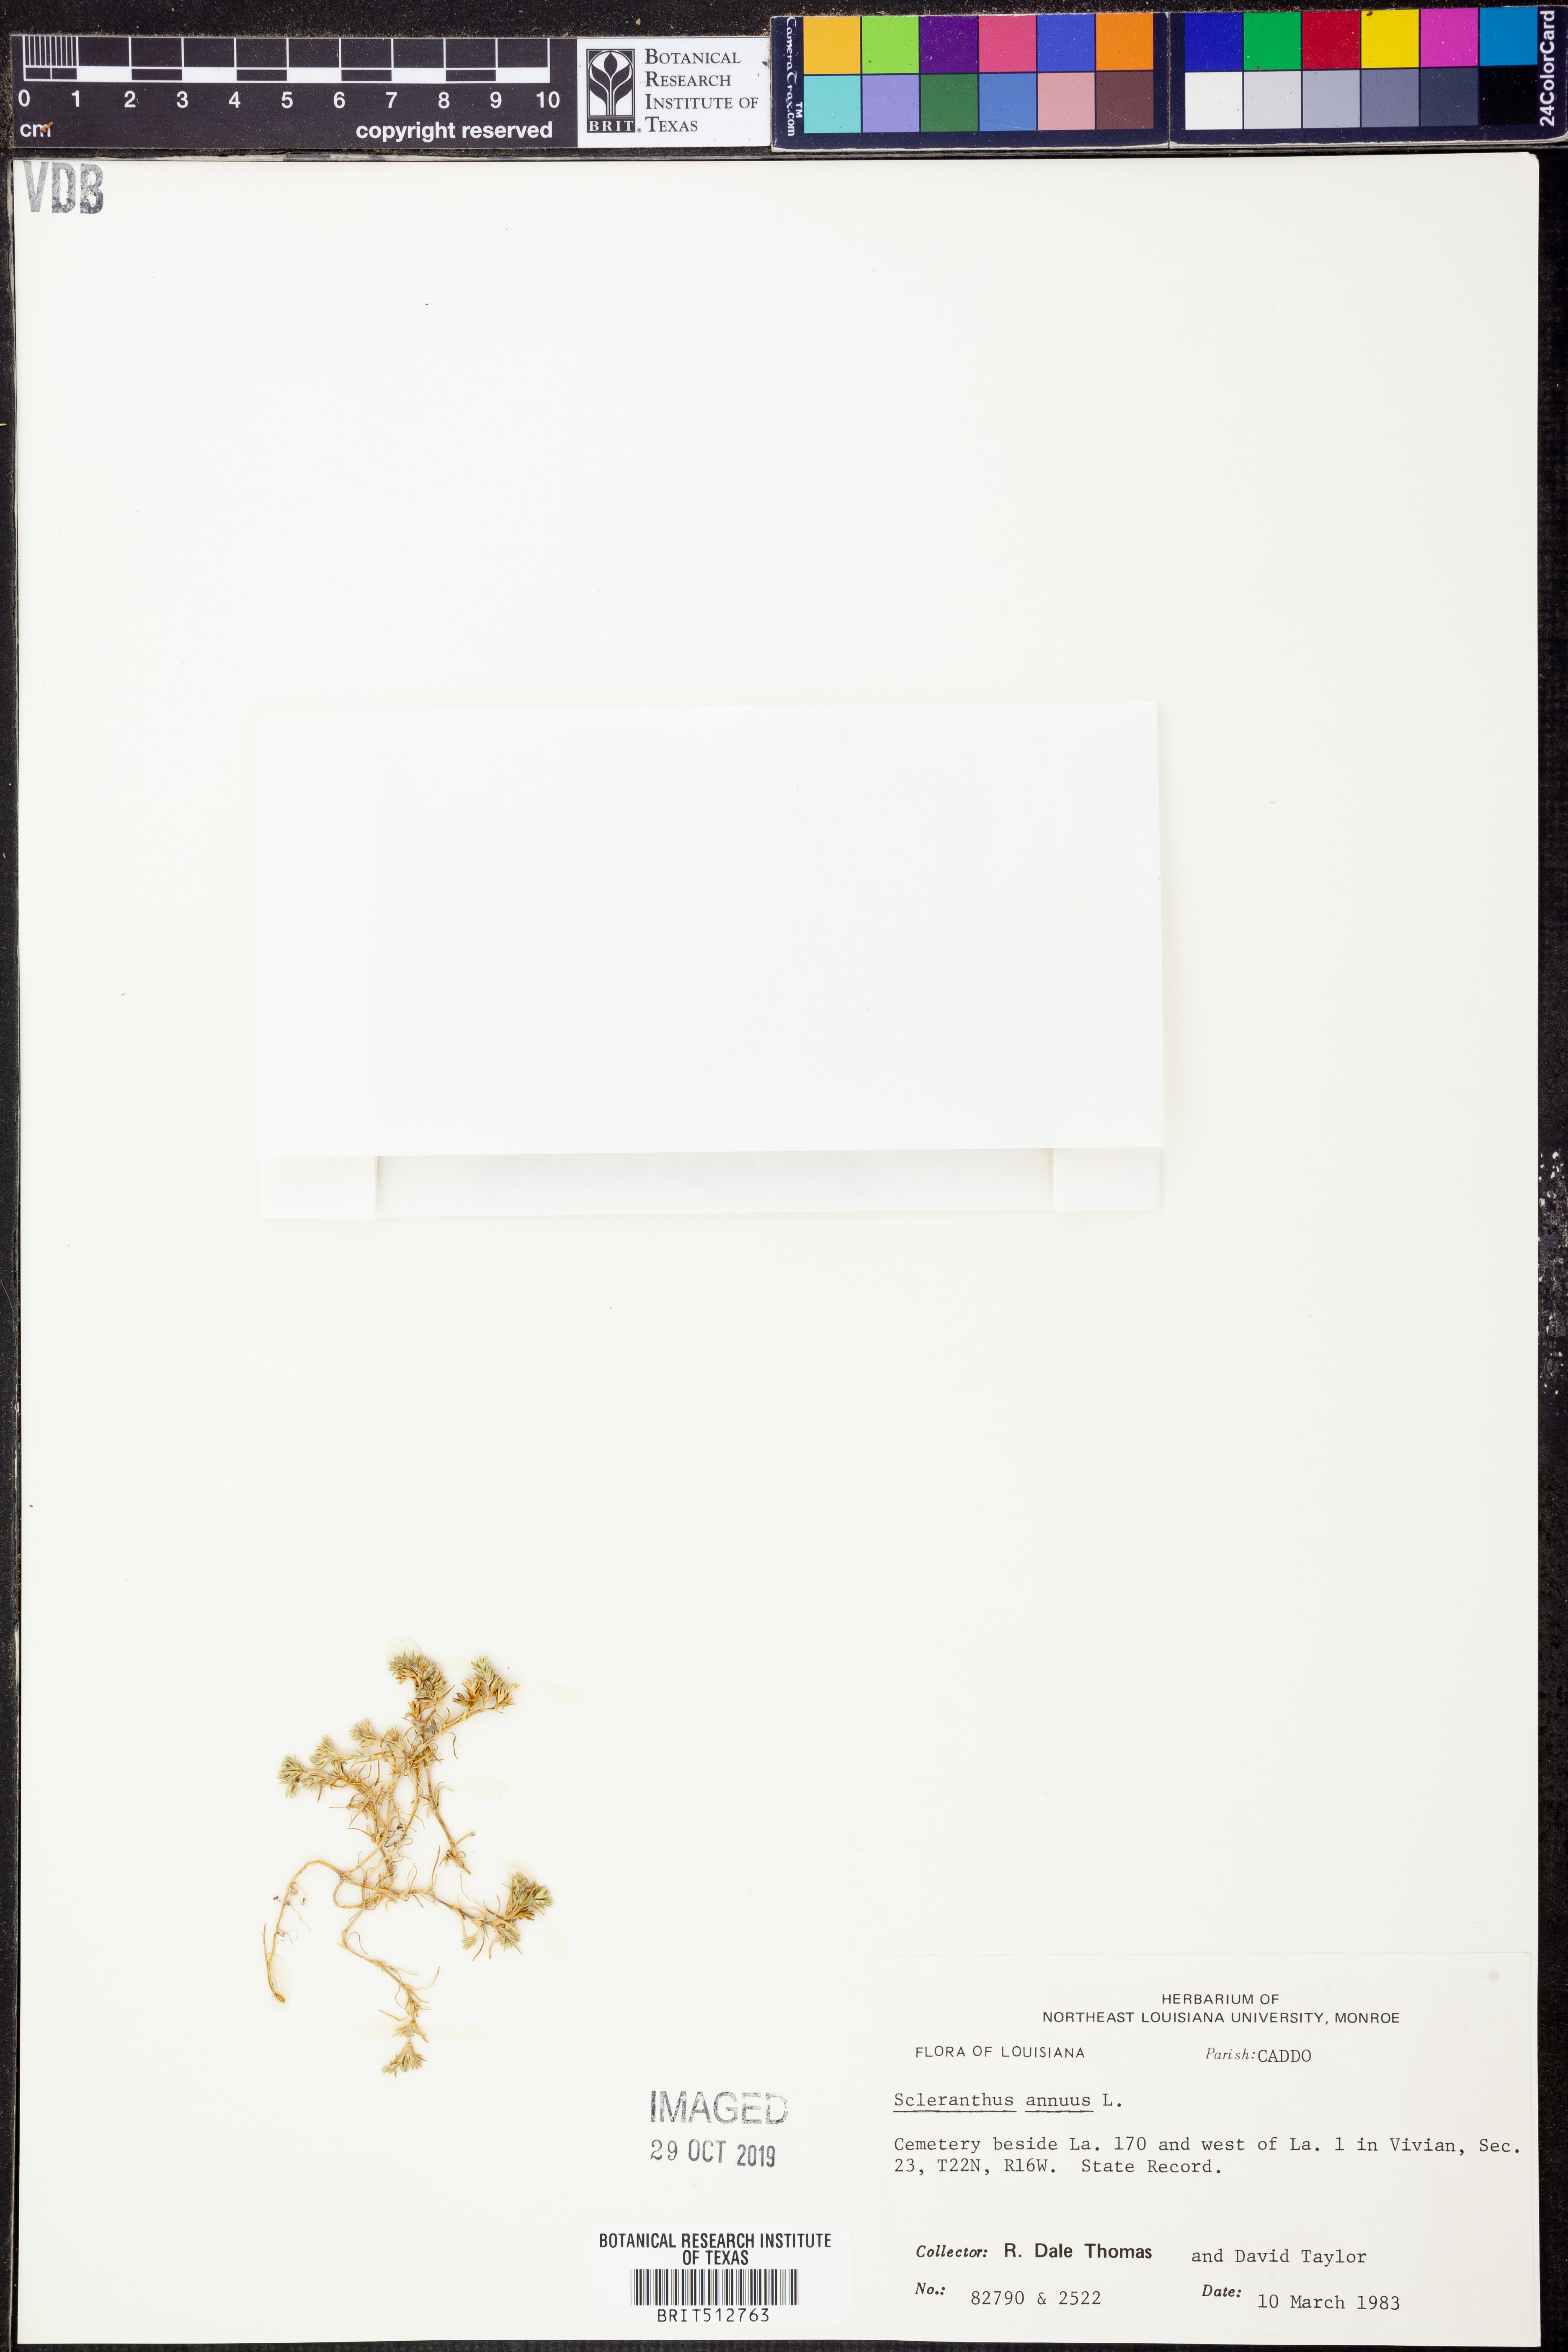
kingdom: Plantae
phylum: Tracheophyta
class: Magnoliopsida
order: Caryophyllales
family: Caryophyllaceae
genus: Scleranthus
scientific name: Scleranthus annuus
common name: Annual knawel
